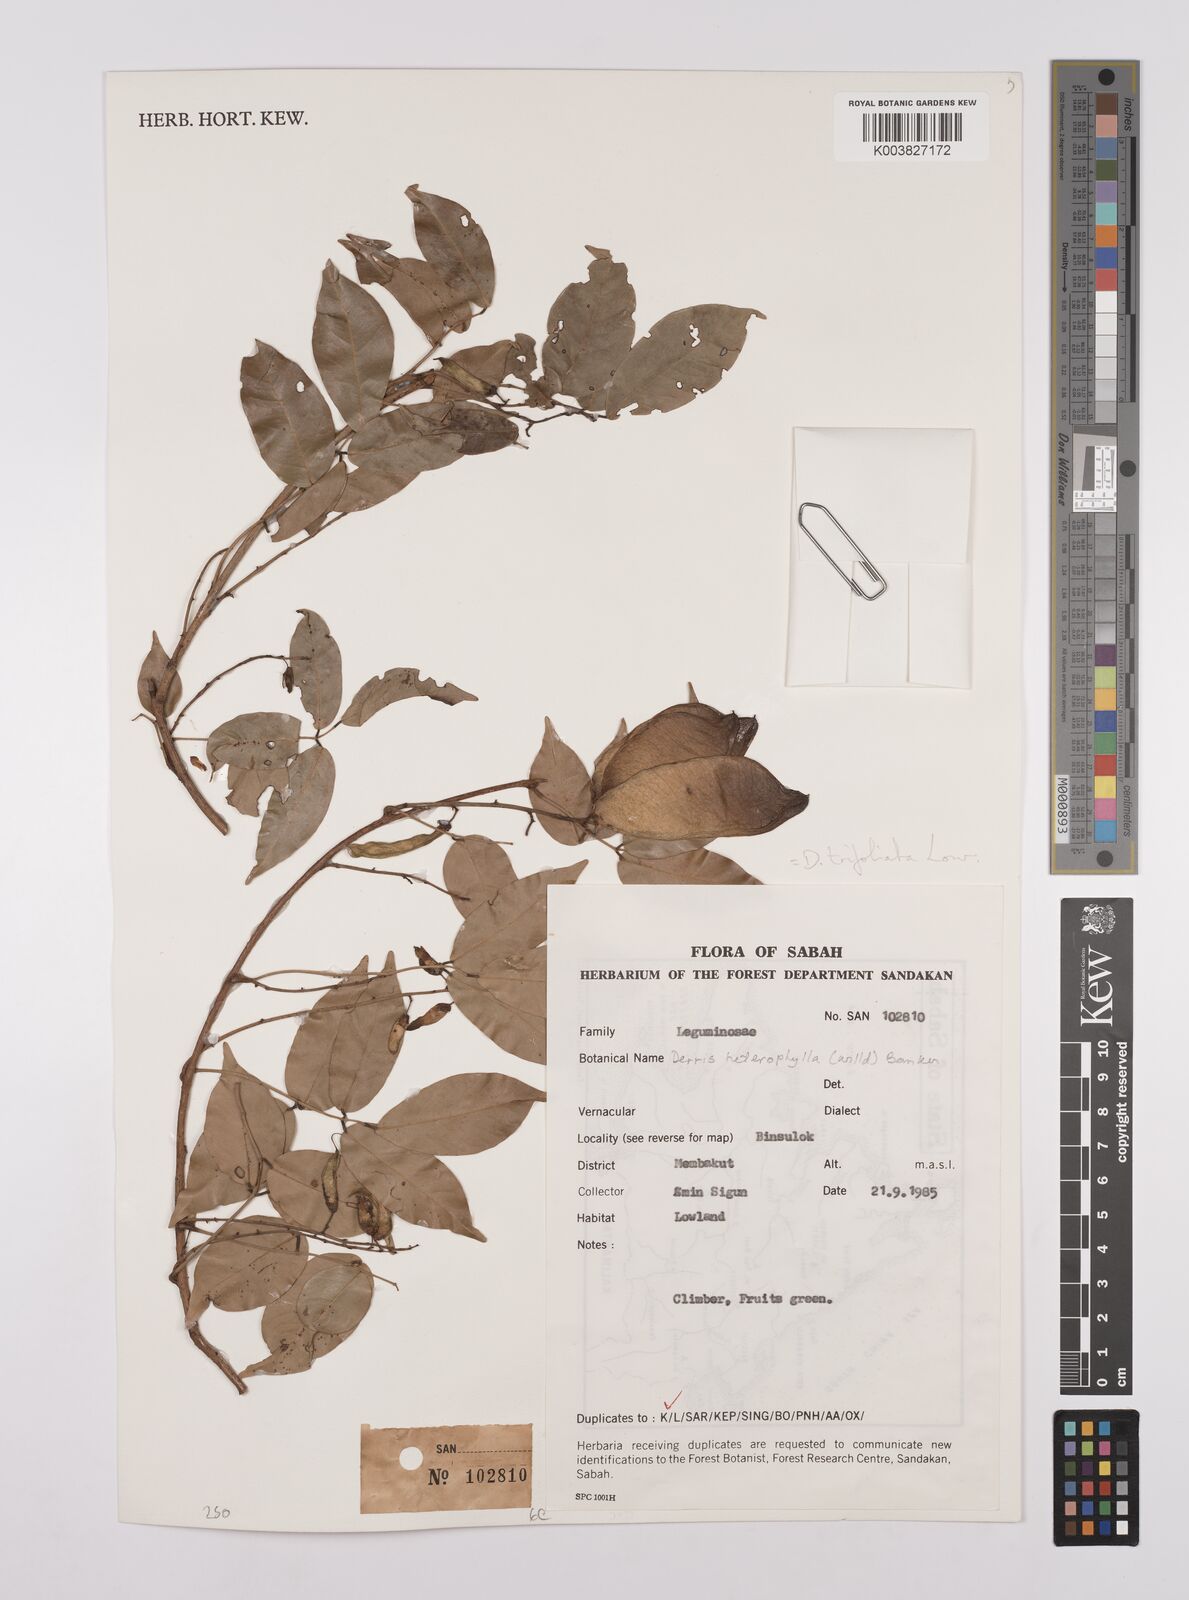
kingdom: Plantae
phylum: Tracheophyta
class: Magnoliopsida
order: Fabales
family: Fabaceae
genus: Derris
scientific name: Derris trifoliata
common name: Three-leaf derris
